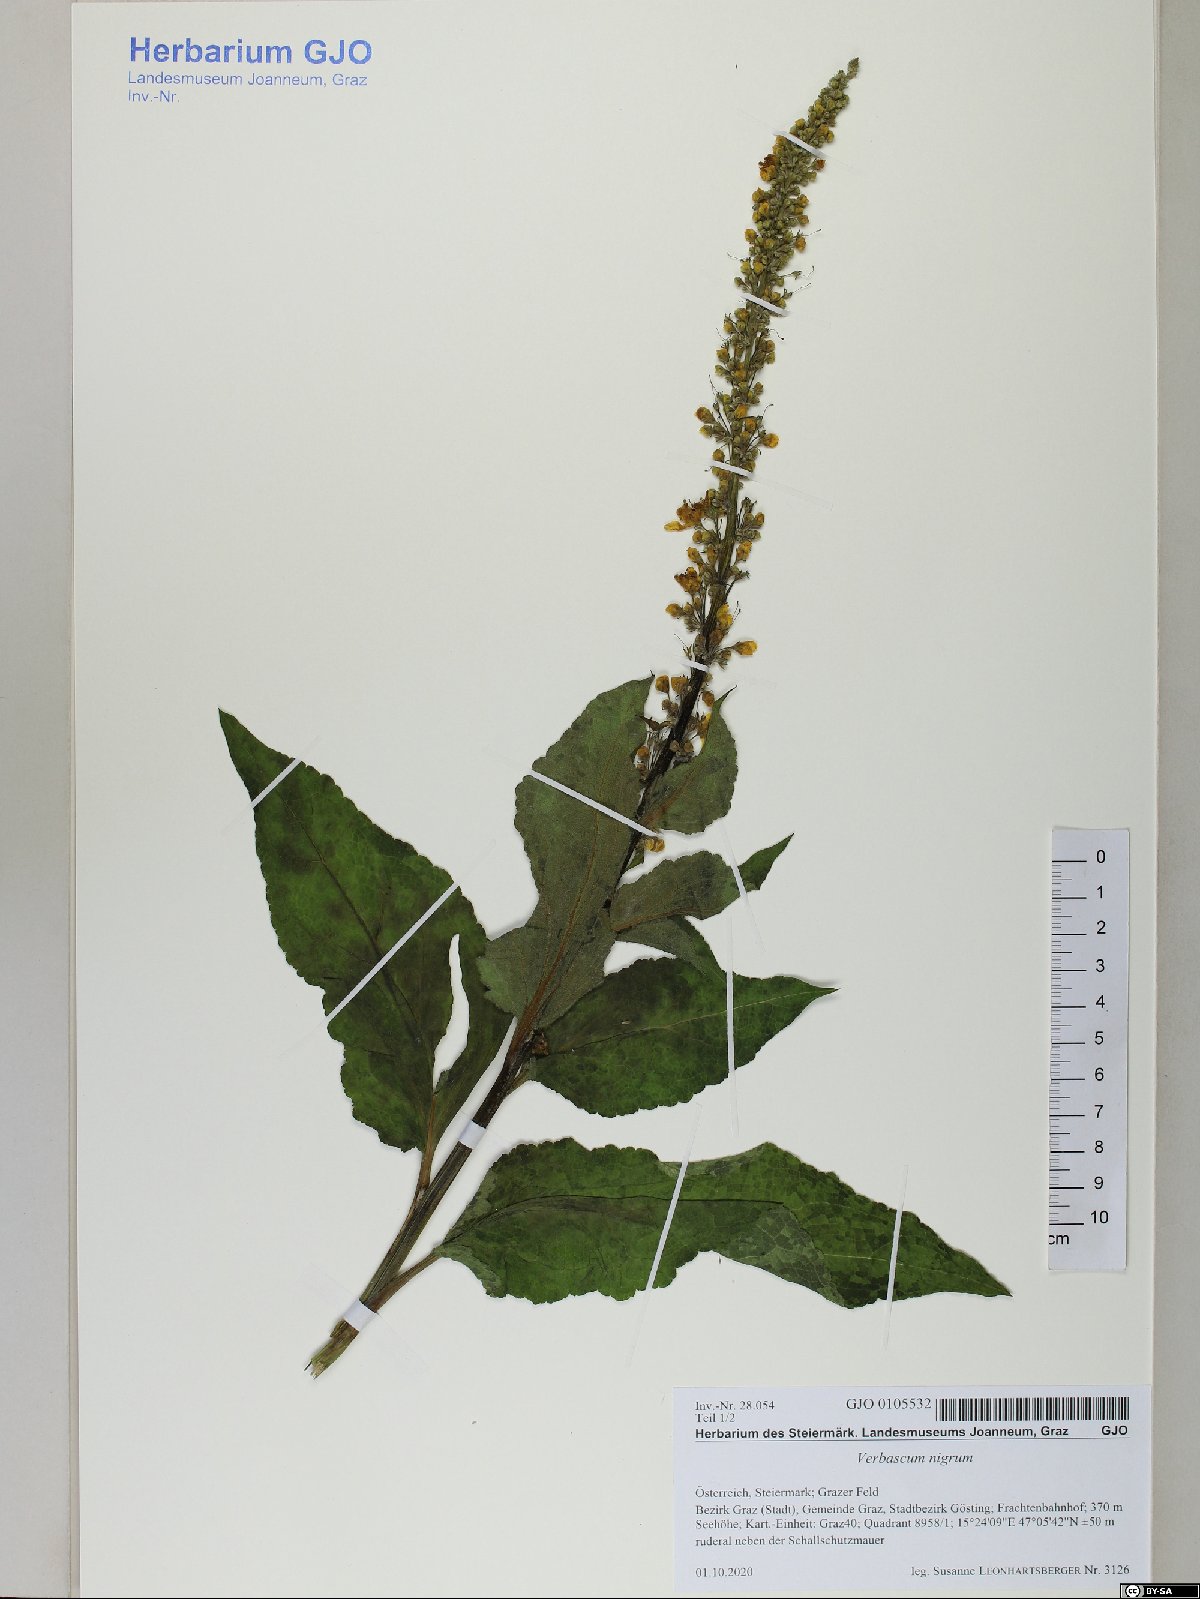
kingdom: Plantae
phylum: Tracheophyta
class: Magnoliopsida
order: Lamiales
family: Scrophulariaceae
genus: Verbascum
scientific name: Verbascum nigrum
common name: Dark mullein
